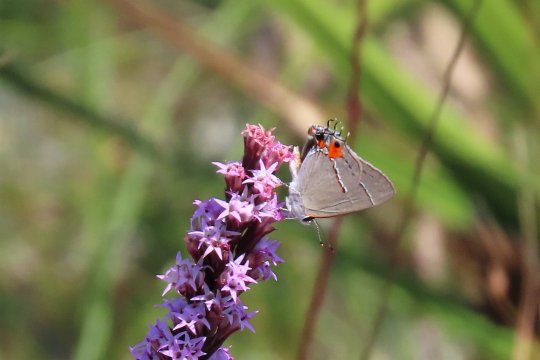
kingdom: Animalia
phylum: Arthropoda
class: Insecta
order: Lepidoptera
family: Lycaenidae
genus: Strymon
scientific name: Strymon melinus
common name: Gray Hairstreak
